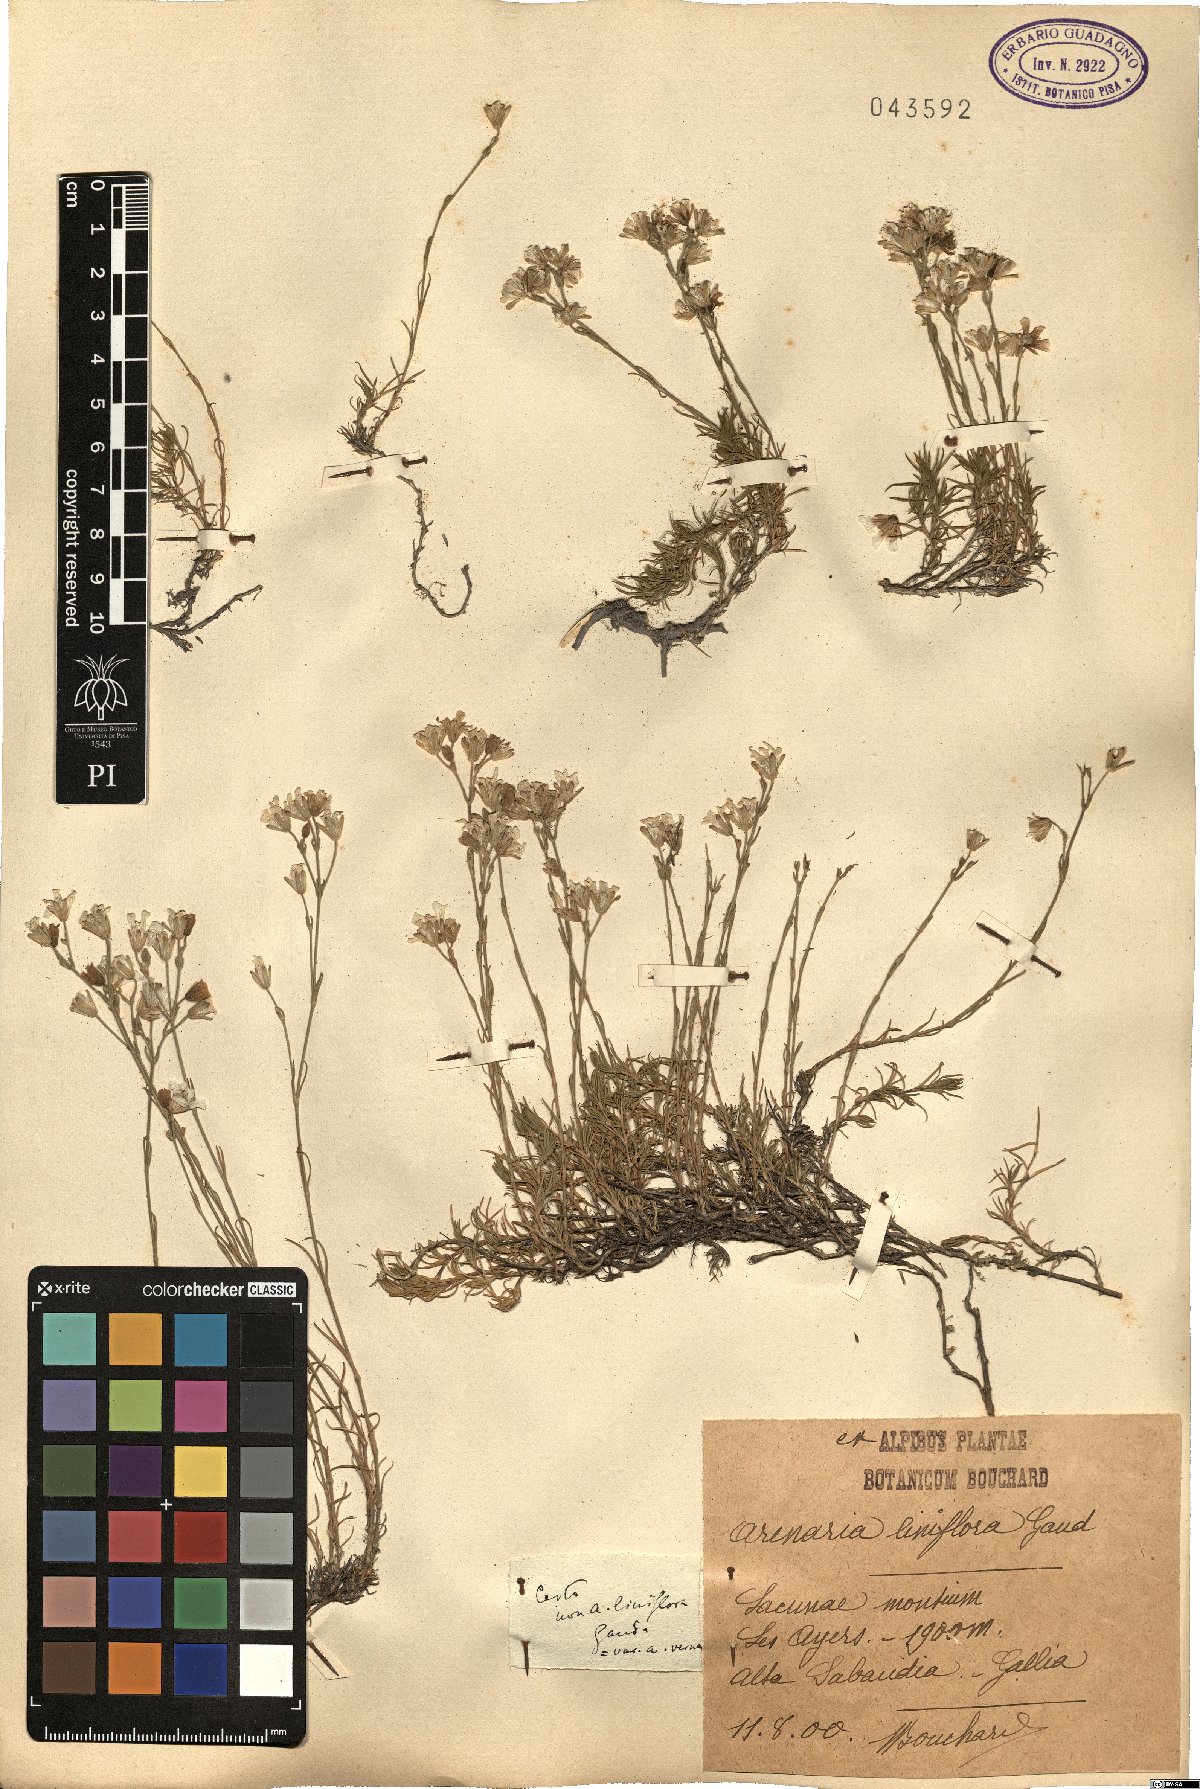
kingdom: Plantae
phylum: Tracheophyta
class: Magnoliopsida
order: Caryophyllales
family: Caryophyllaceae
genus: Cherleria
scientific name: Cherleria laricifolia
